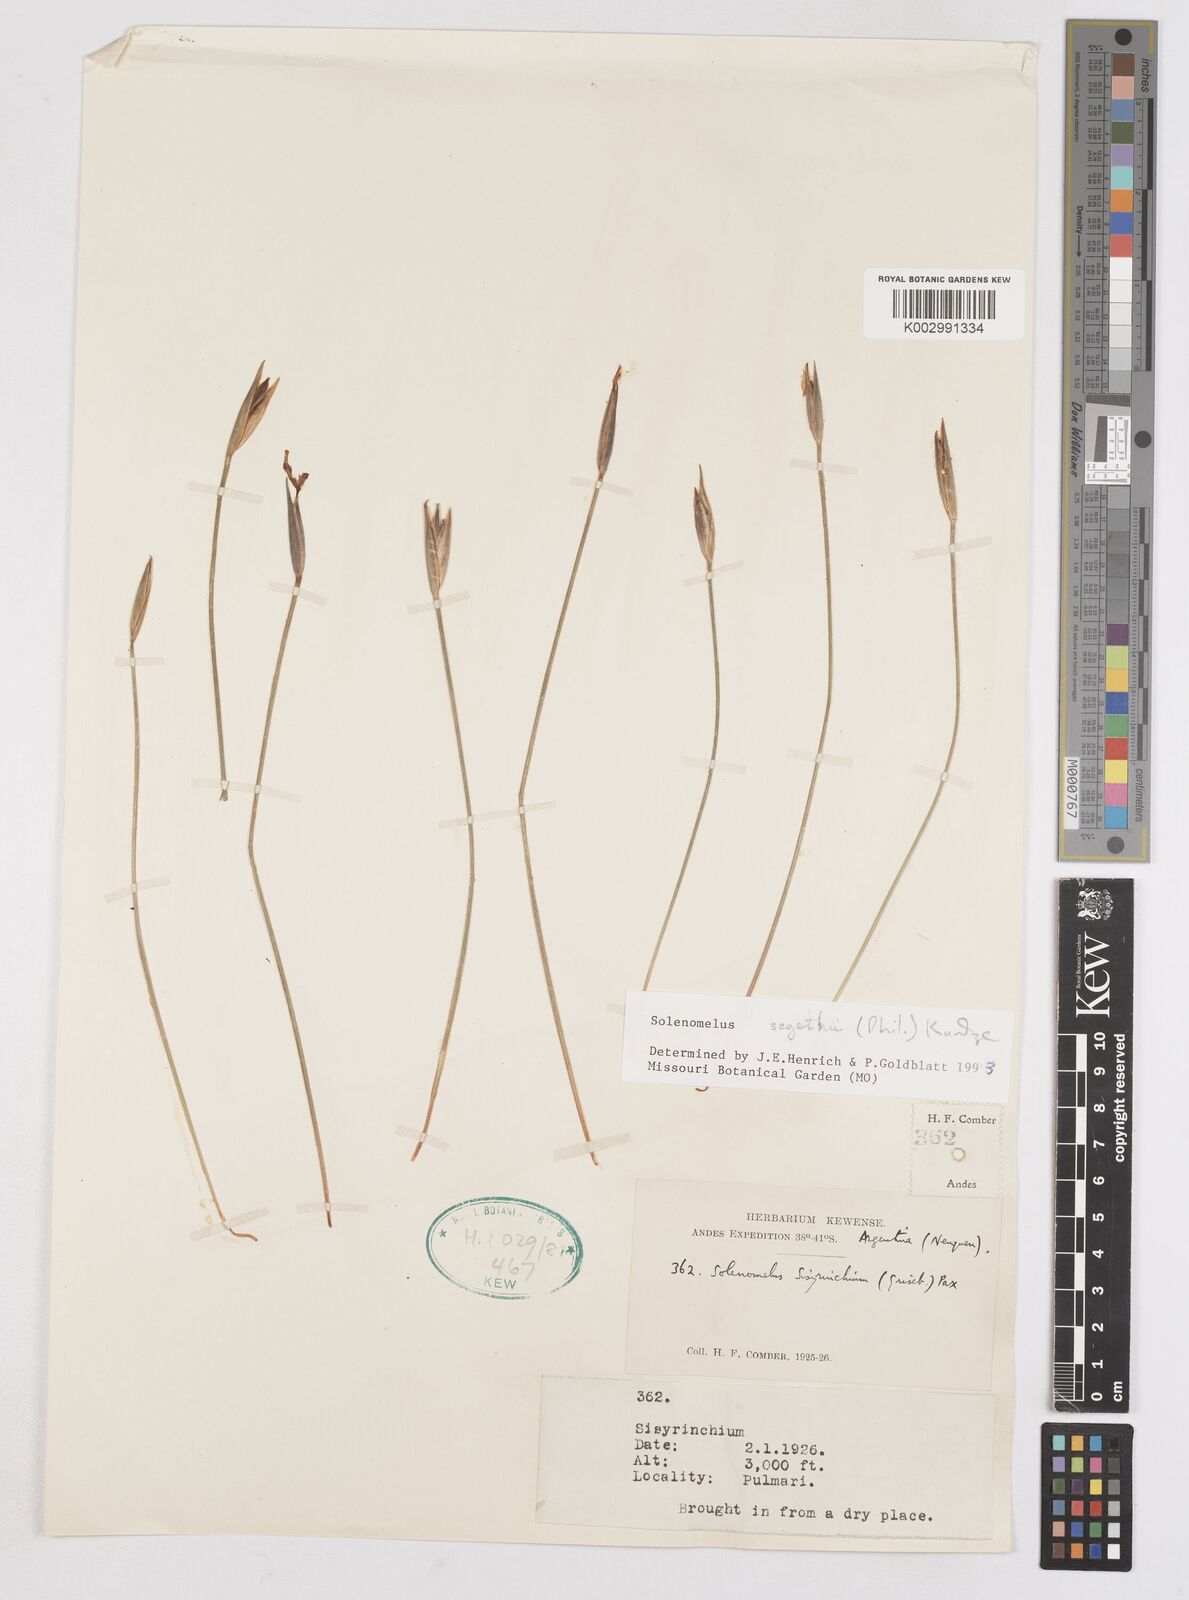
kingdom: Plantae
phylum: Tracheophyta
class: Liliopsida
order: Asparagales
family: Iridaceae
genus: Solenomelus
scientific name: Solenomelus segethi
